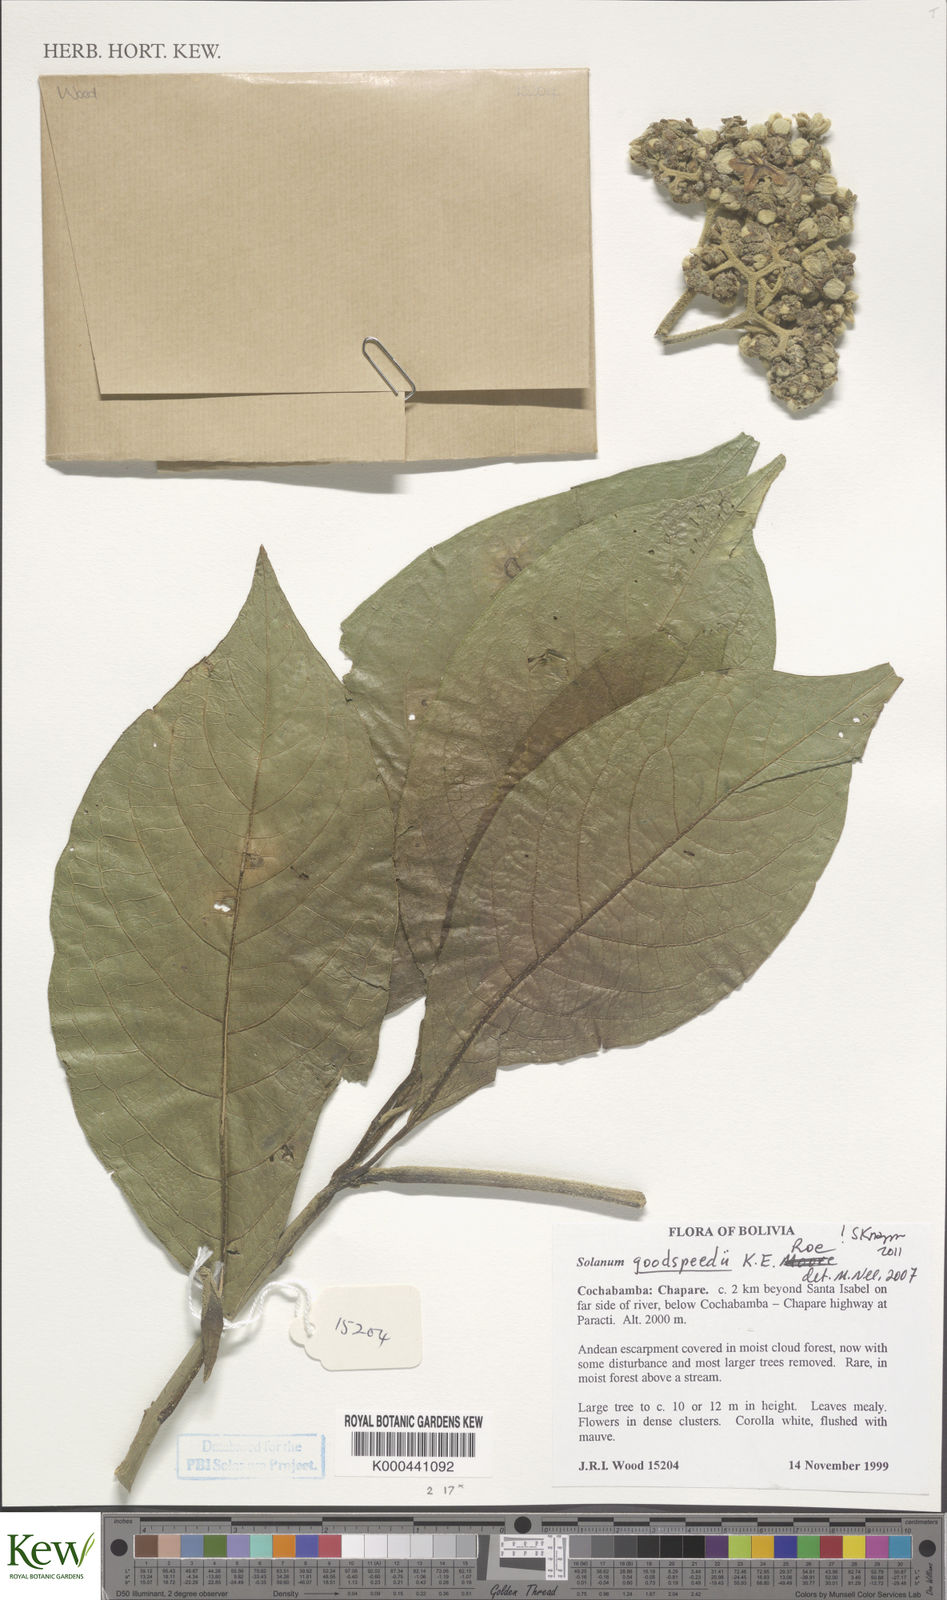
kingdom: Plantae
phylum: Tracheophyta
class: Magnoliopsida
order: Solanales
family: Solanaceae
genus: Solanum
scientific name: Solanum goodspeedii
